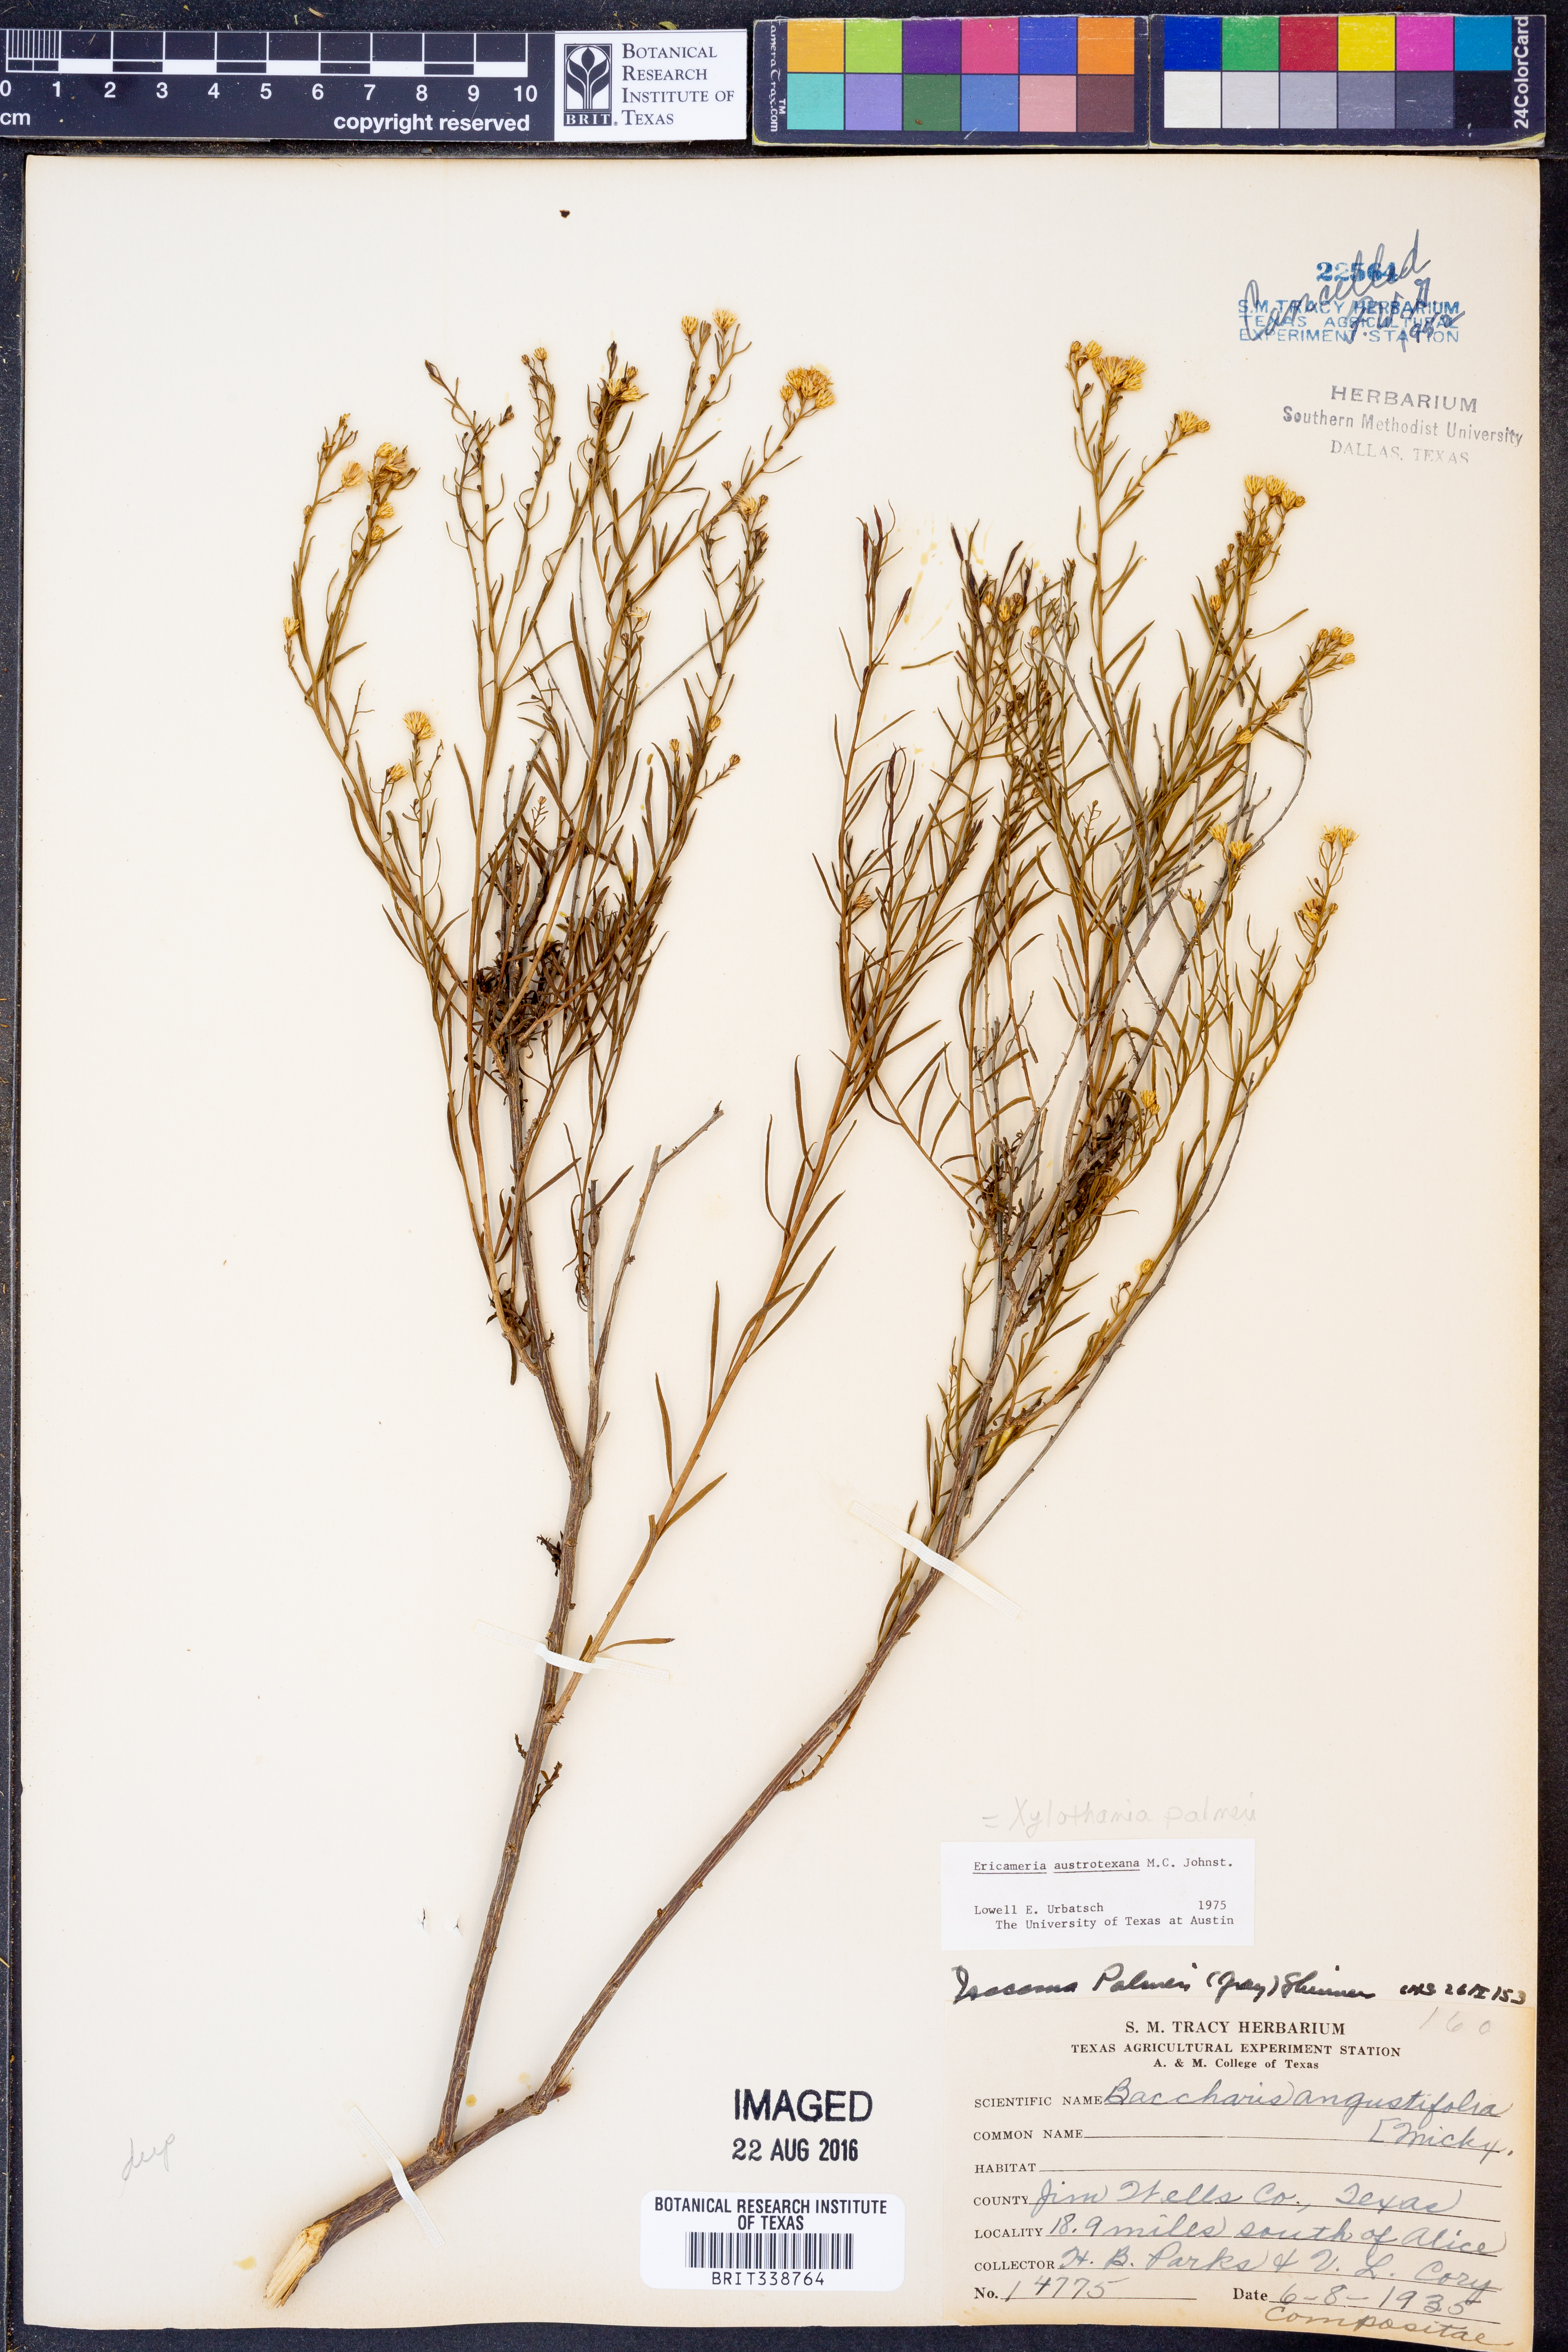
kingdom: Plantae
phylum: Tracheophyta
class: Magnoliopsida
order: Asterales
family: Asteraceae
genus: Medranoa
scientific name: Medranoa palmeri
